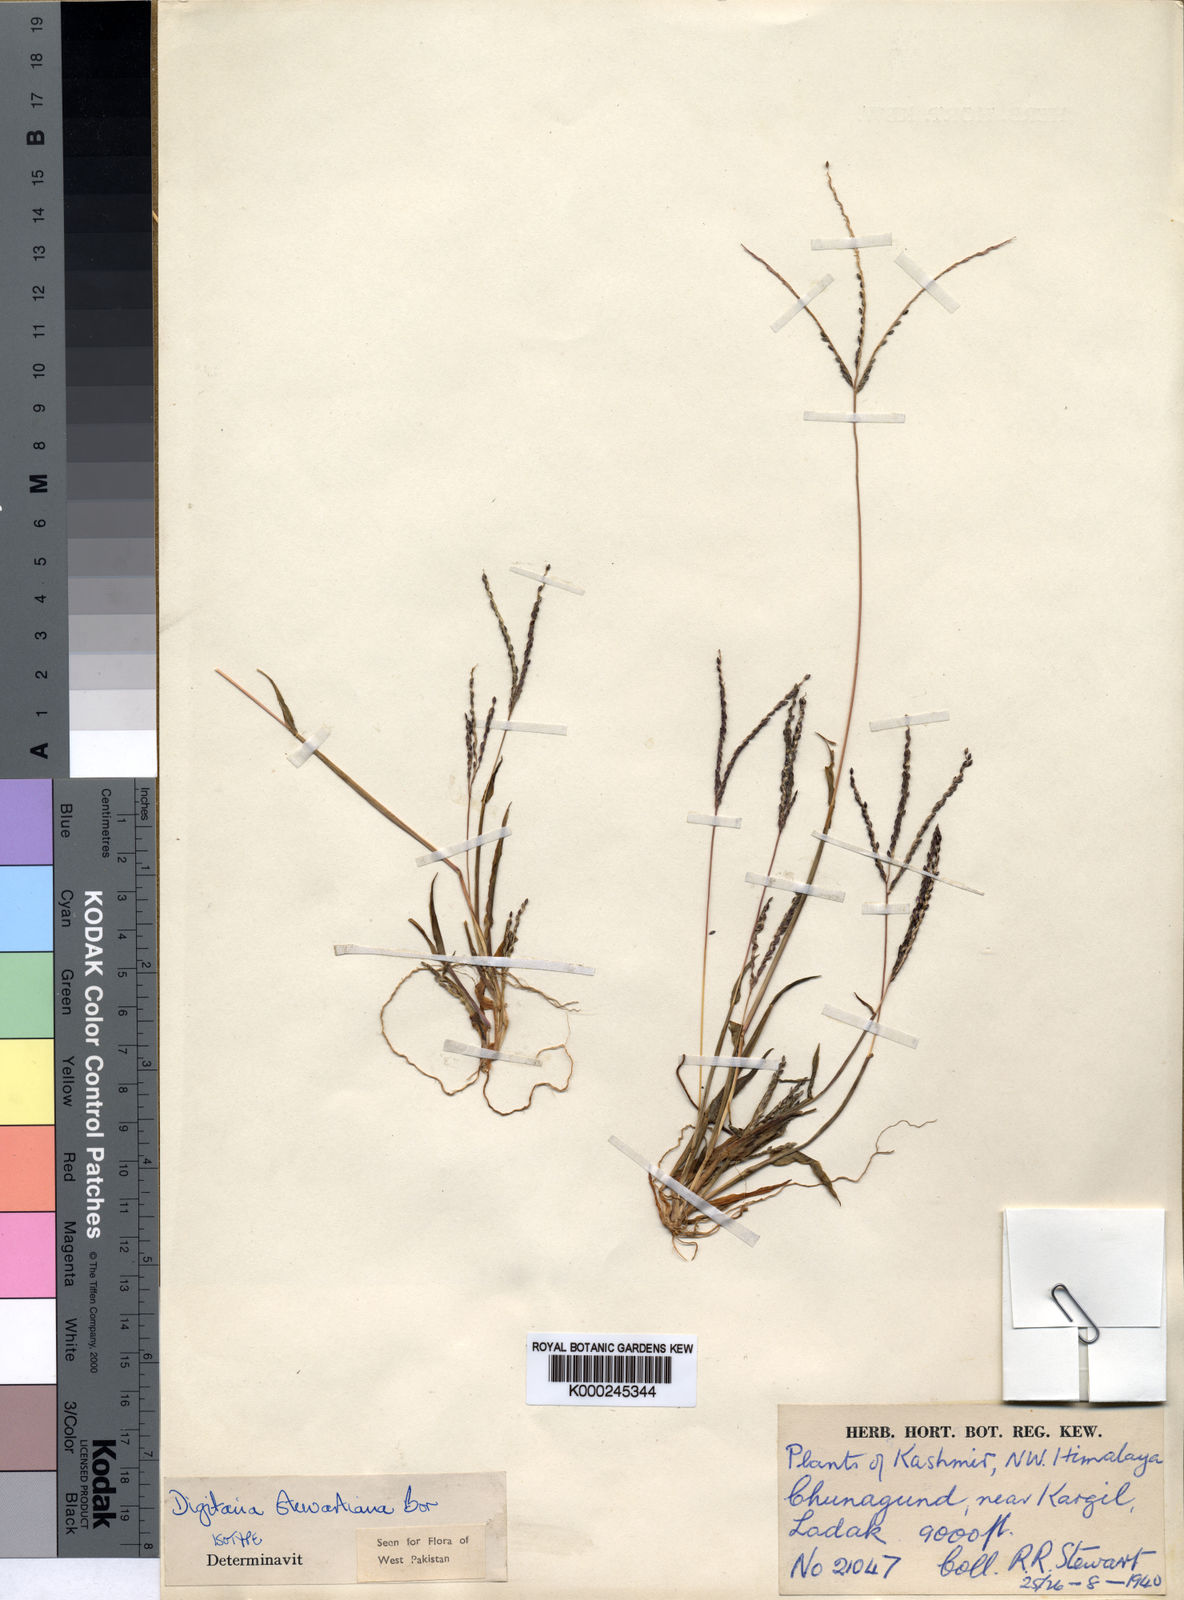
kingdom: Plantae
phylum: Tracheophyta
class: Liliopsida
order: Poales
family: Poaceae
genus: Digitaria
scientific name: Digitaria stewartiana
